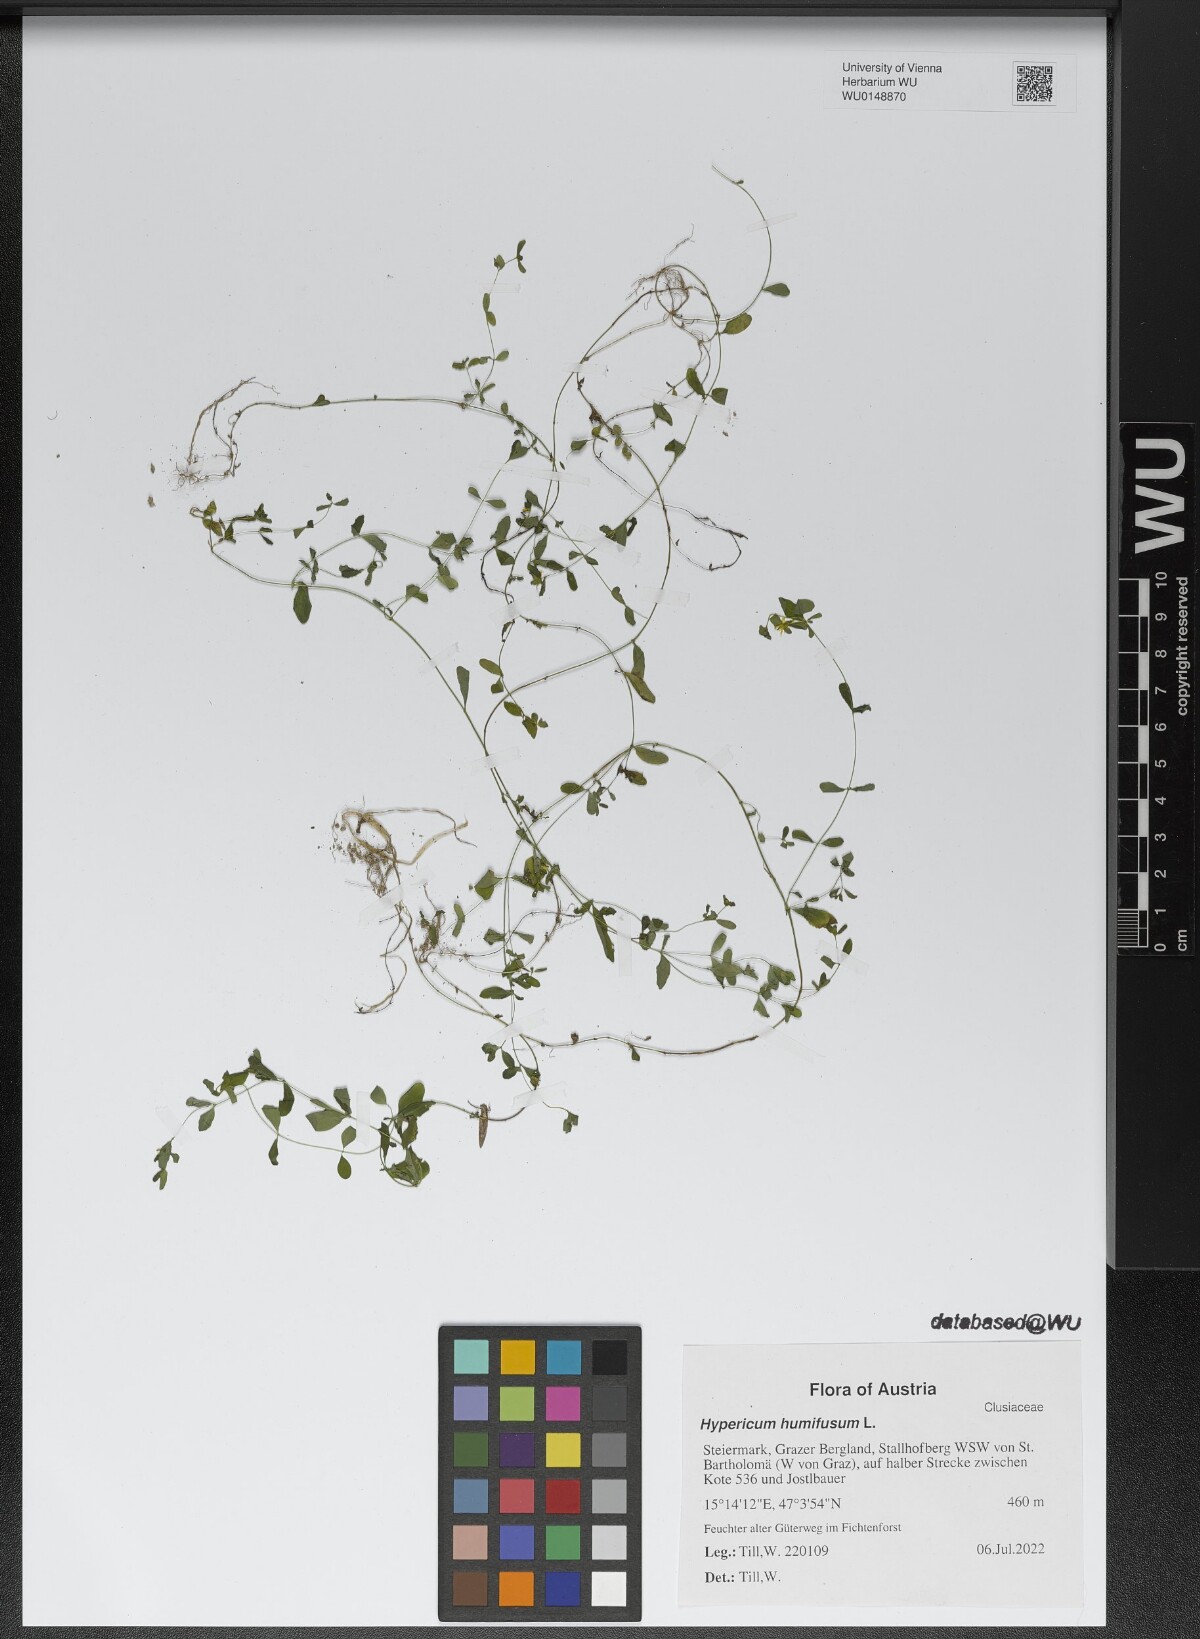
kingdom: Plantae
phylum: Tracheophyta
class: Magnoliopsida
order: Malpighiales
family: Hypericaceae
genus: Hypericum
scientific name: Hypericum humifusum
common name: Trailing st. john's-wort
